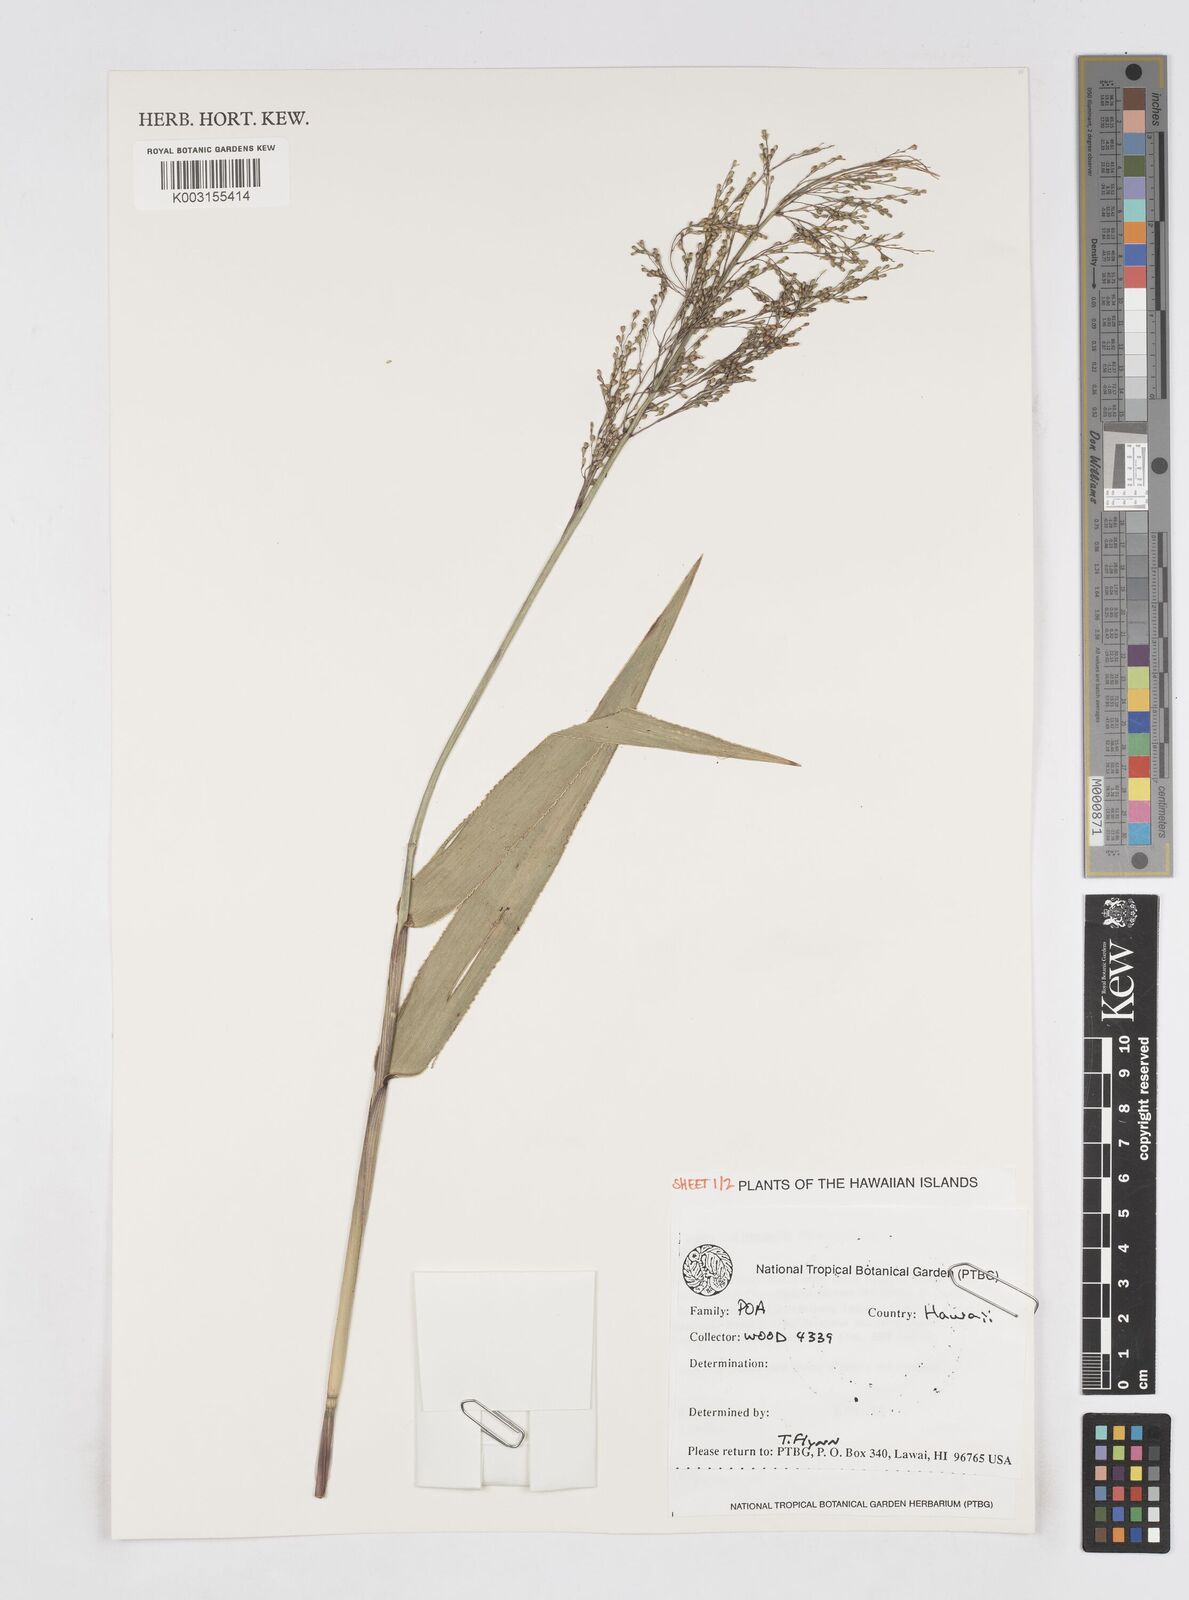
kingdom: Plantae
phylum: Tracheophyta
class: Liliopsida
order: Poales
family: Poaceae
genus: Isachne
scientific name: Isachne distichophylla
